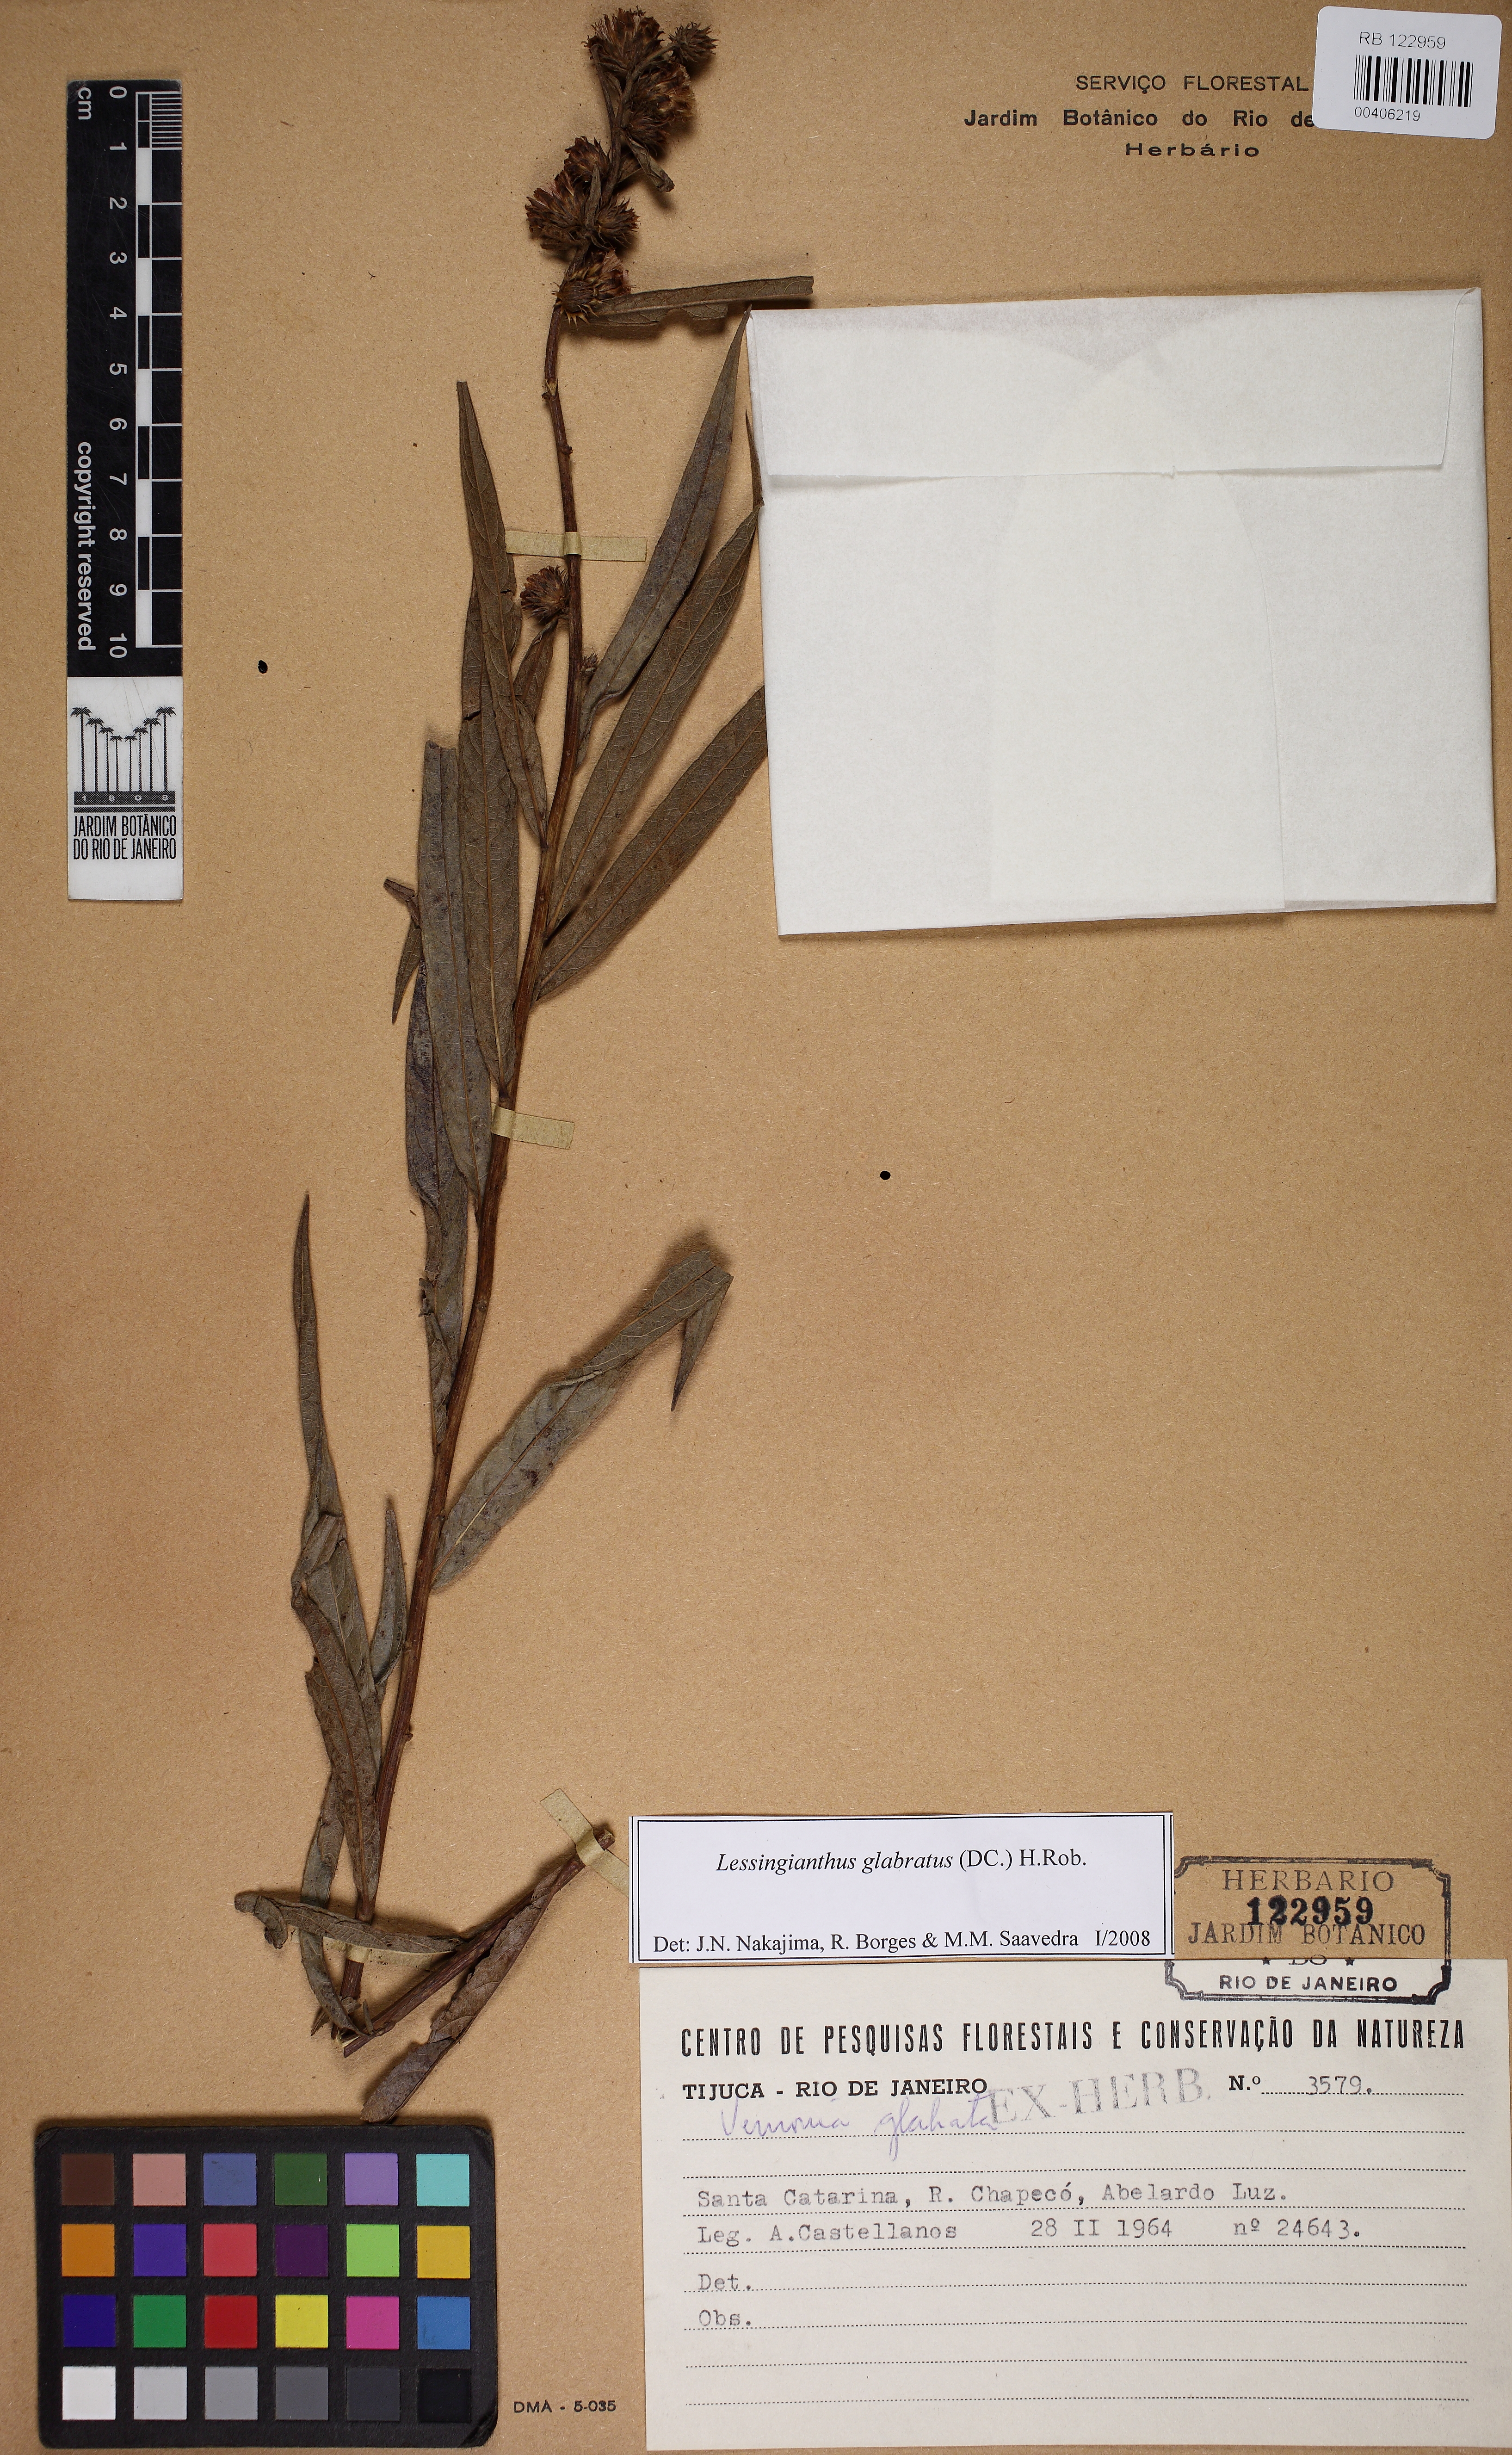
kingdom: Plantae
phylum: Tracheophyta
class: Magnoliopsida
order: Asterales
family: Asteraceae
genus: Lessingianthus
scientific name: Lessingianthus glabratus
